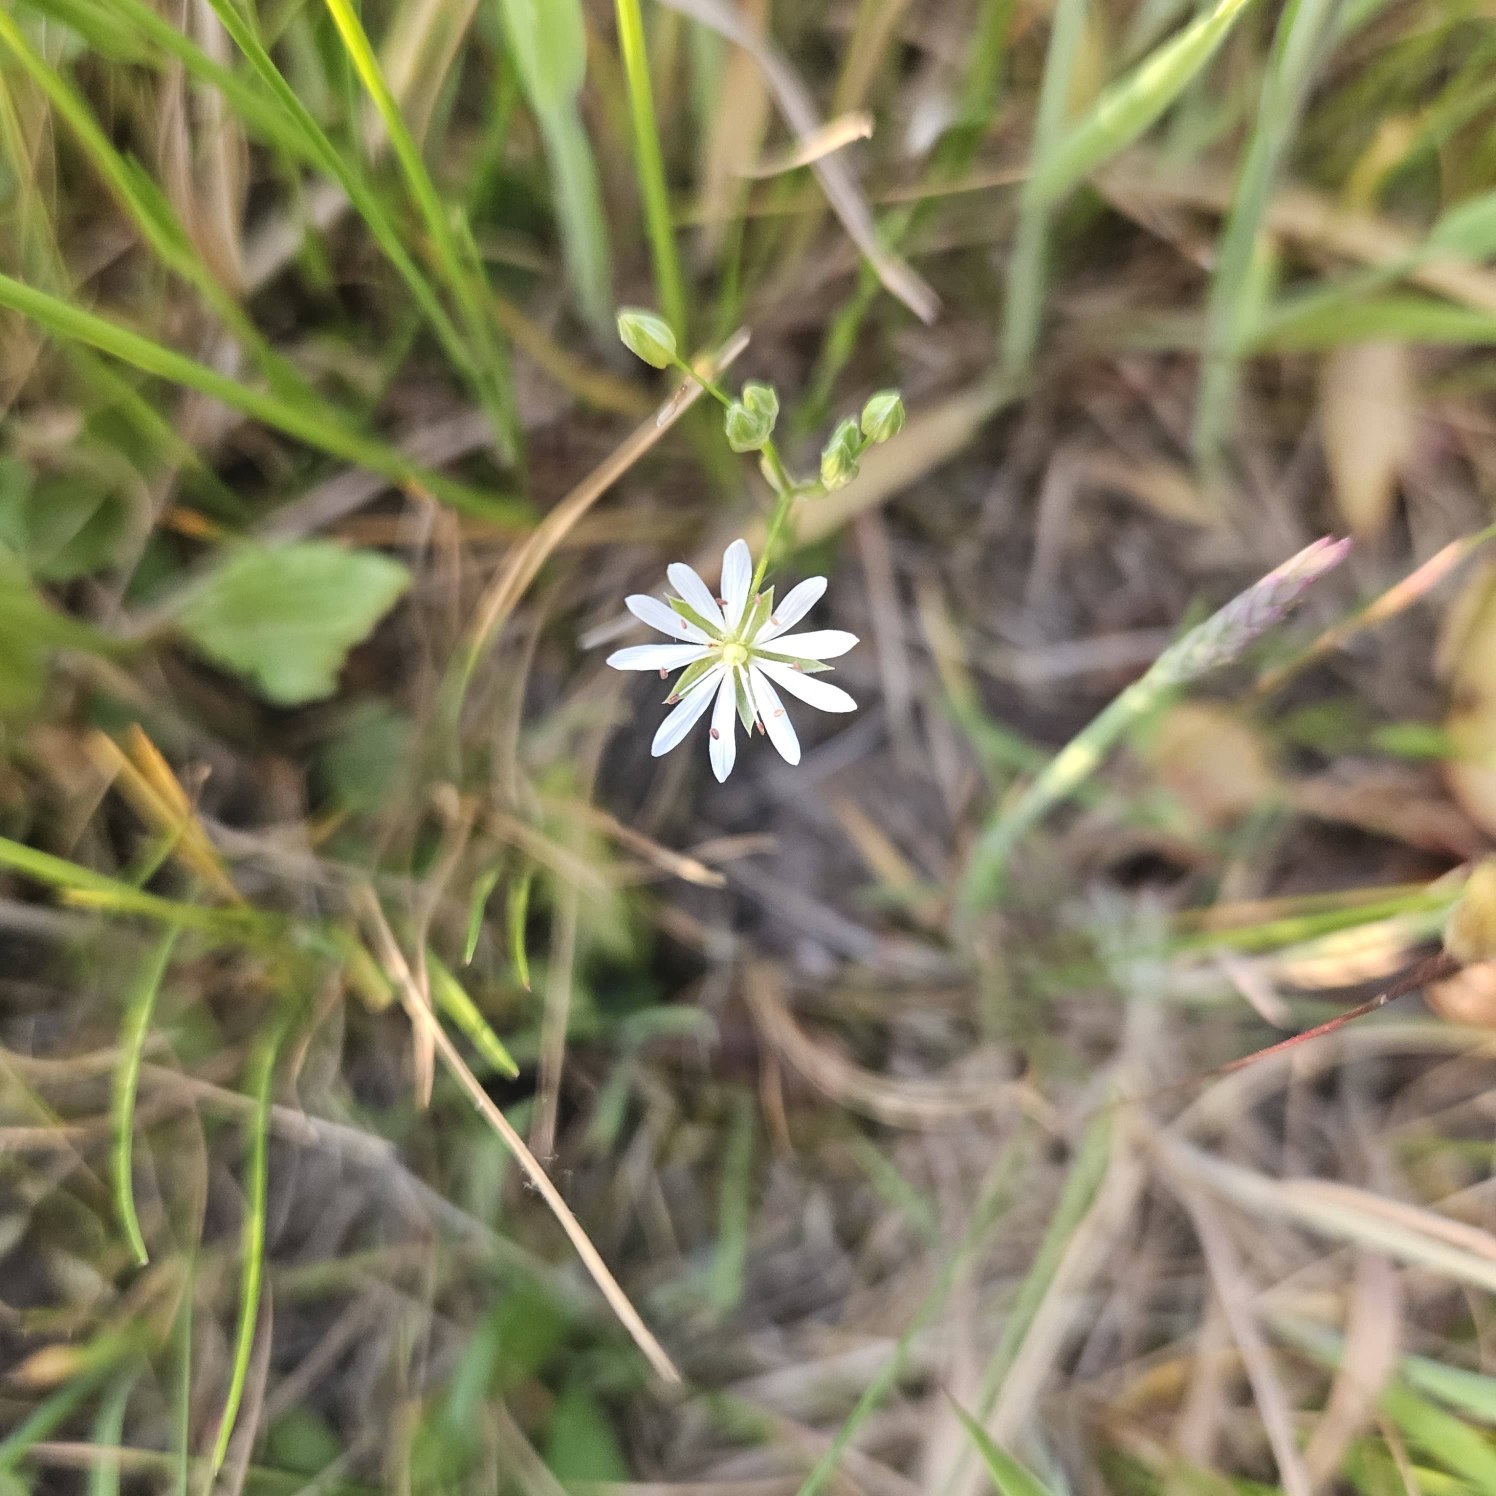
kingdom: Plantae
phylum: Tracheophyta
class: Magnoliopsida
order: Caryophyllales
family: Caryophyllaceae
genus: Stellaria
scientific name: Stellaria graminea
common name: Græsbladet fladstjerne
